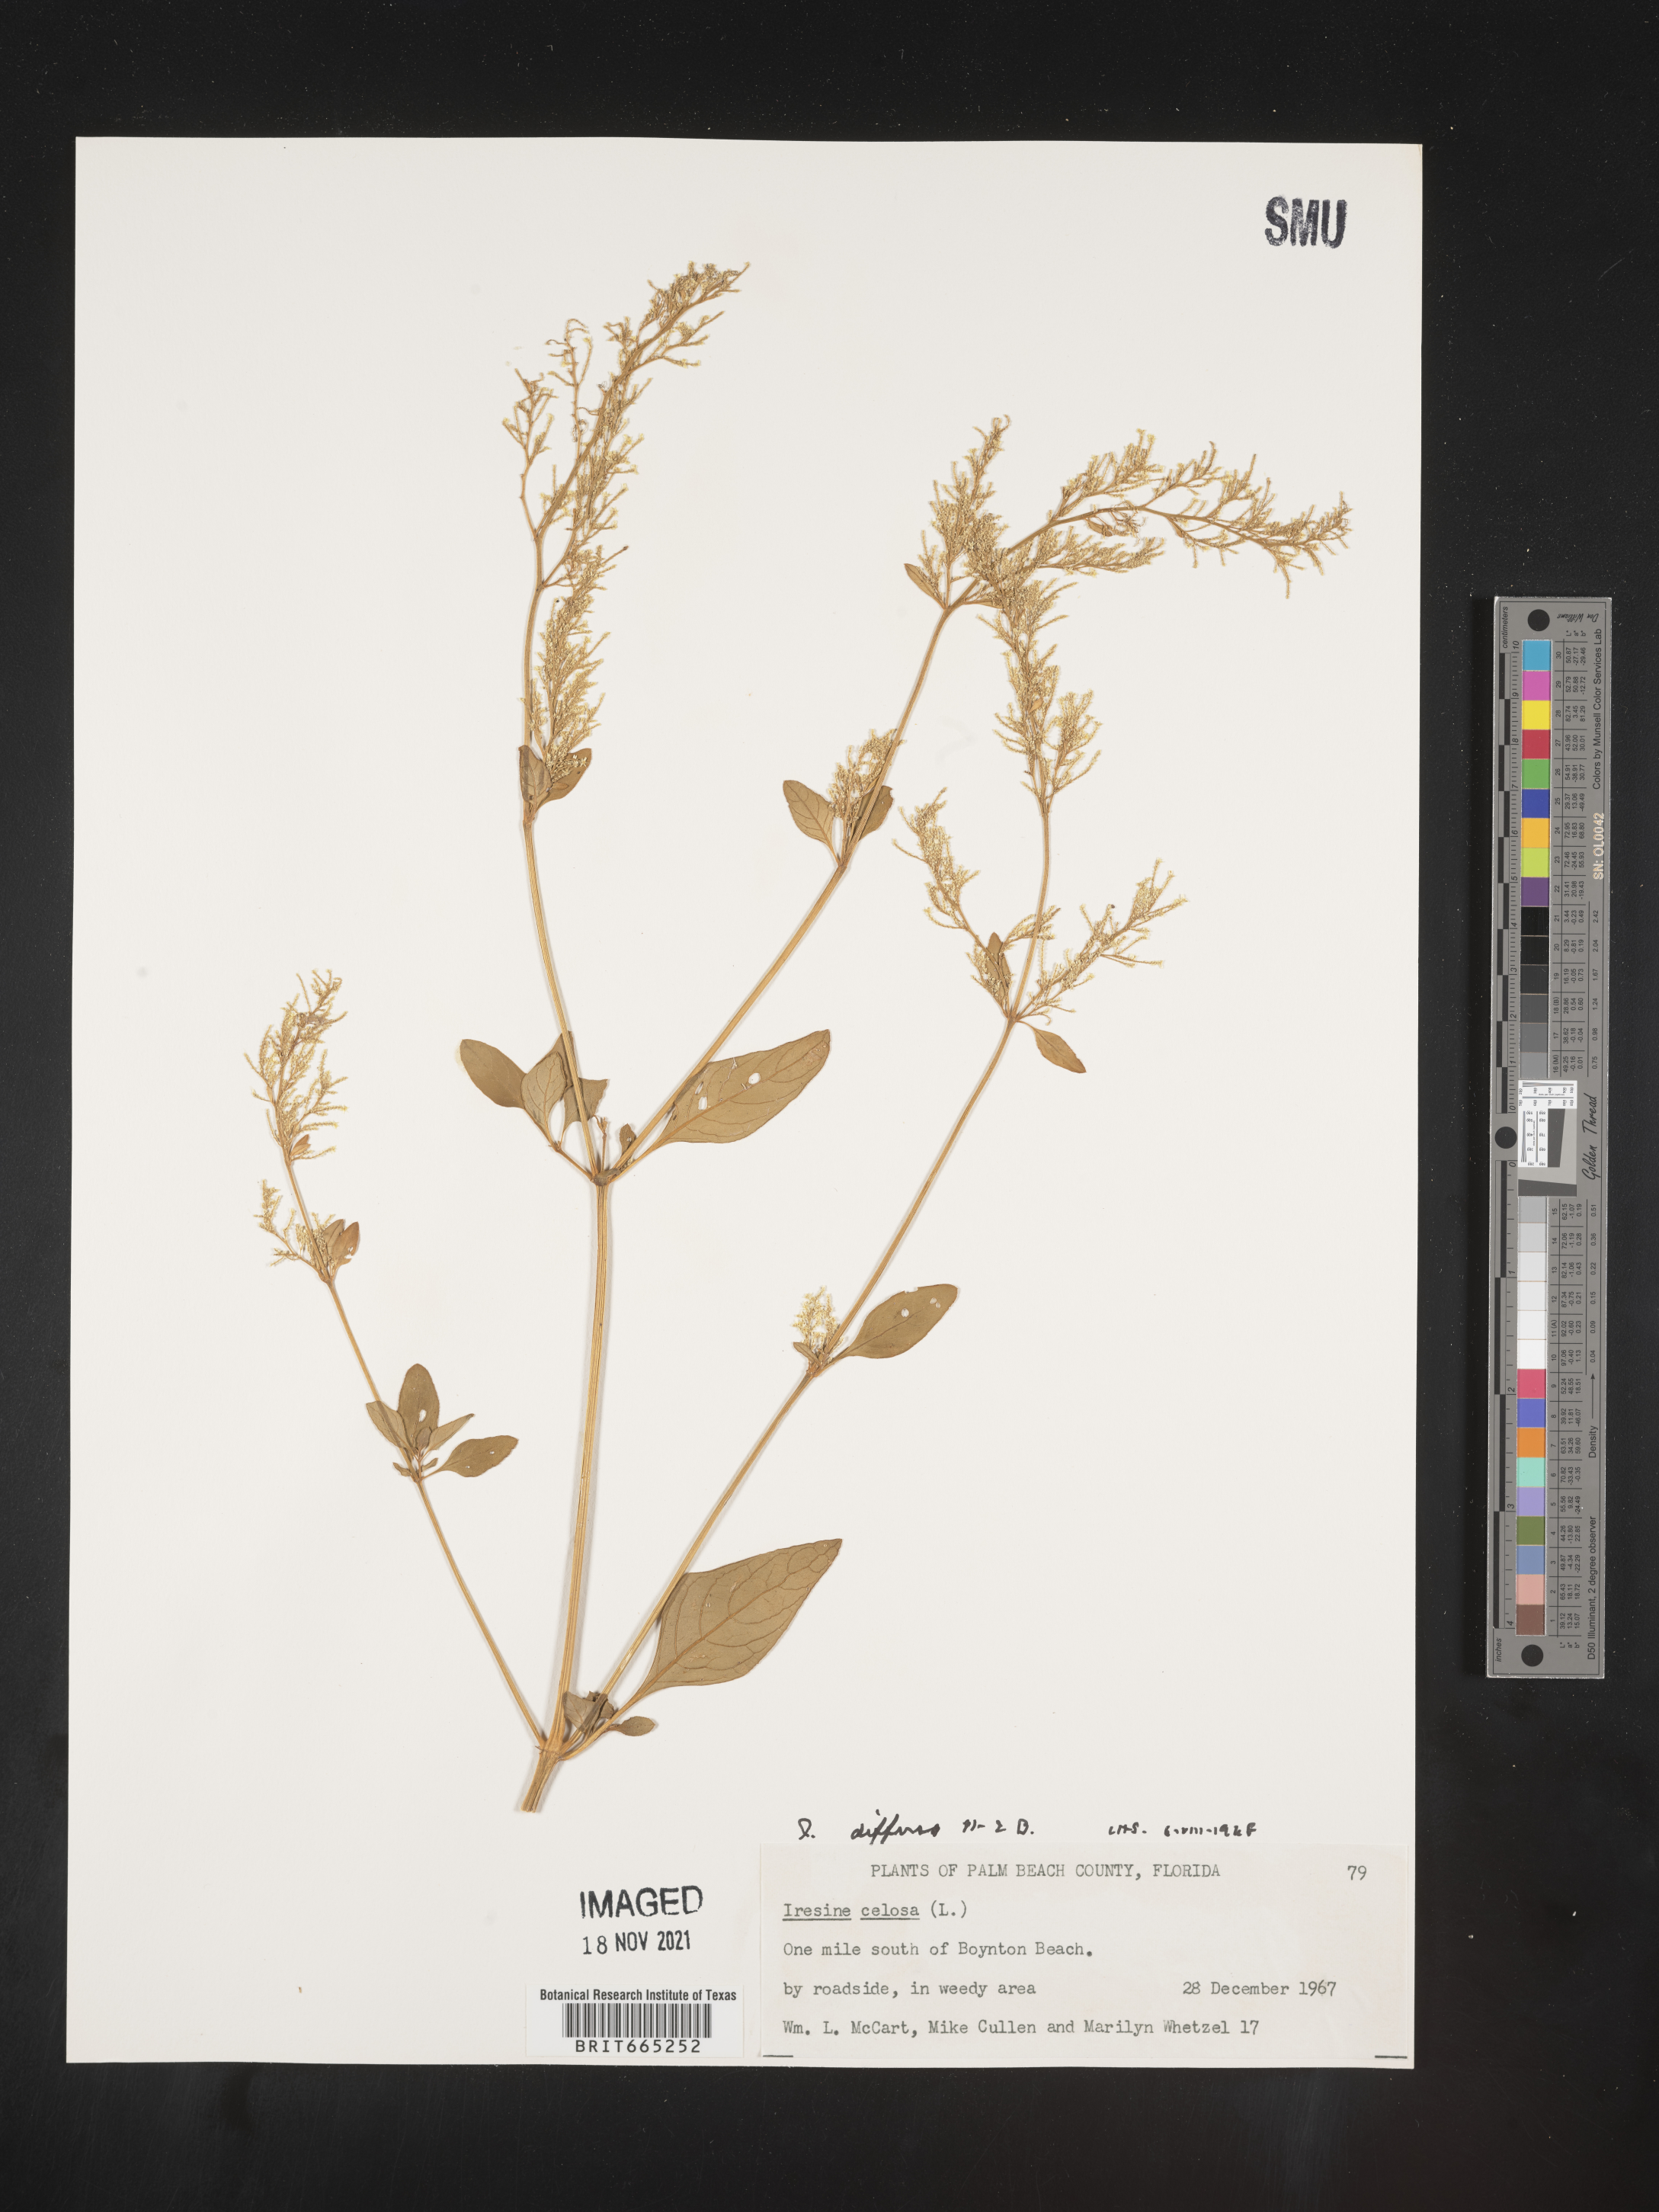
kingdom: Plantae
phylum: Tracheophyta
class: Magnoliopsida
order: Caryophyllales
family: Amaranthaceae
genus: Iresine
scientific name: Iresine
